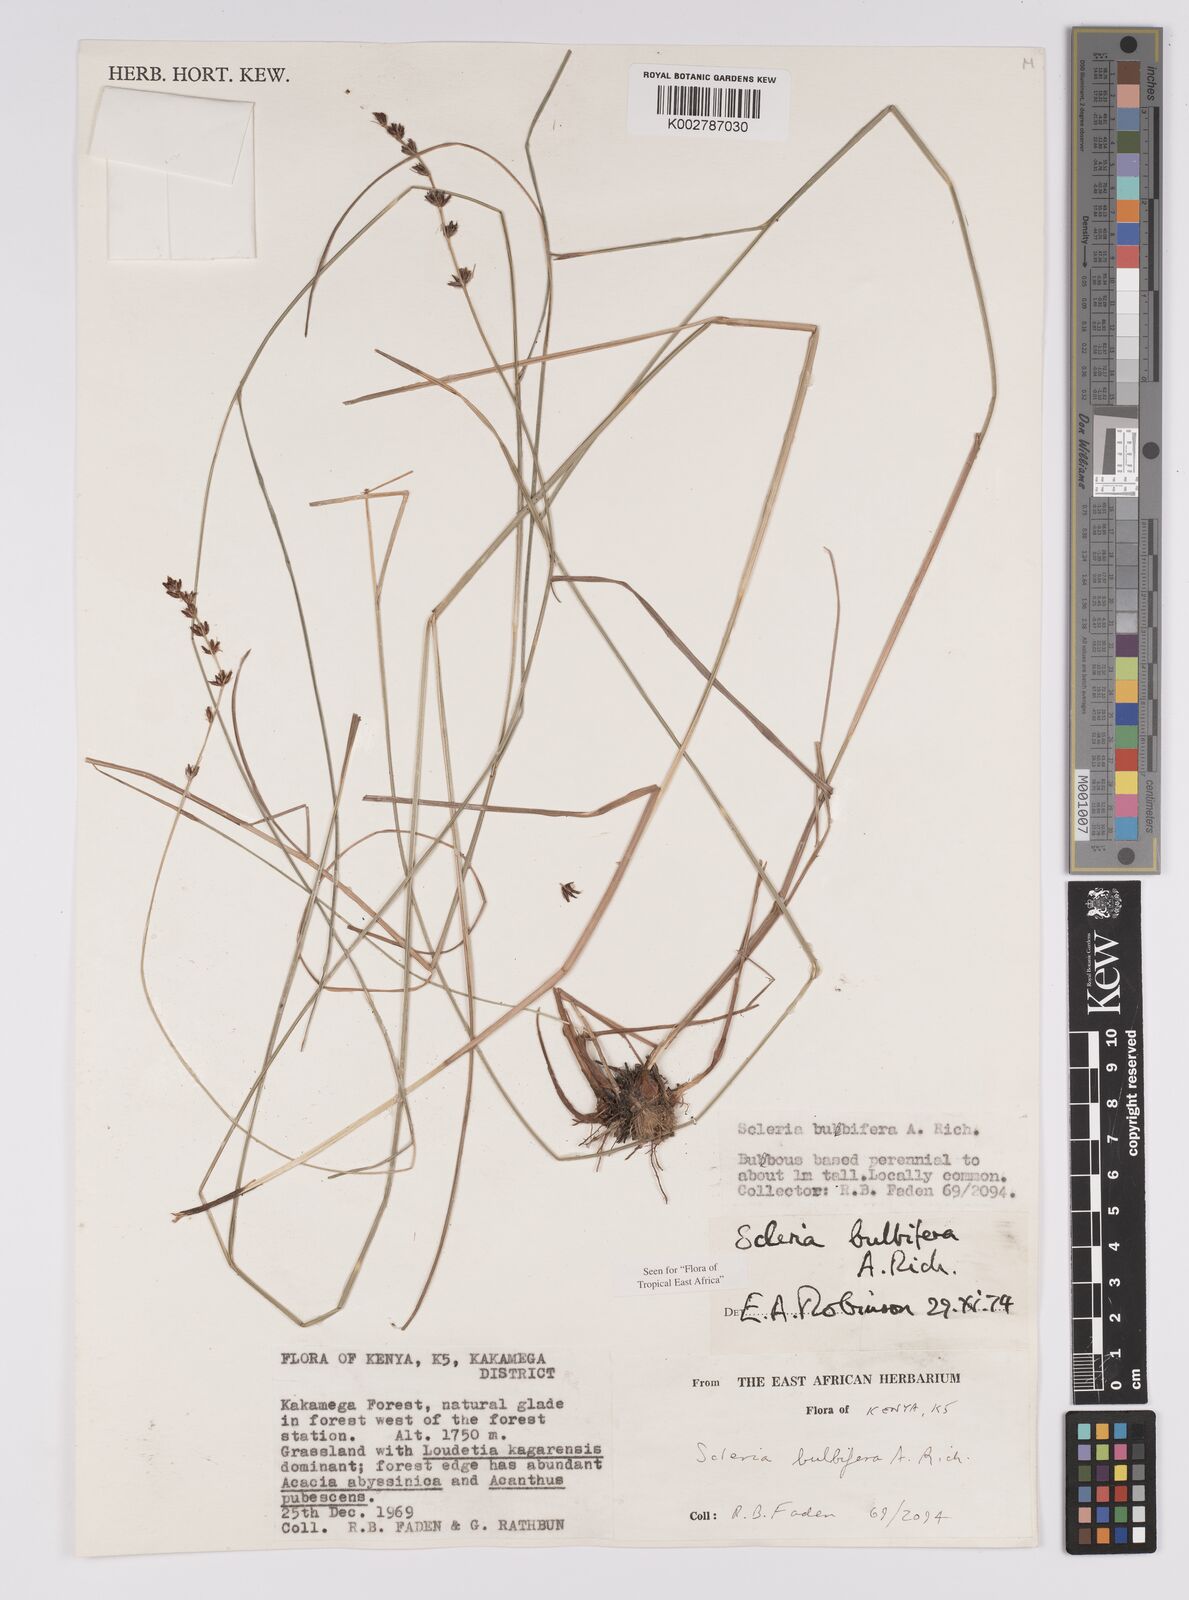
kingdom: Plantae
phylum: Tracheophyta
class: Liliopsida
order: Poales
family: Cyperaceae
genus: Scleria
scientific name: Scleria bulbifera
